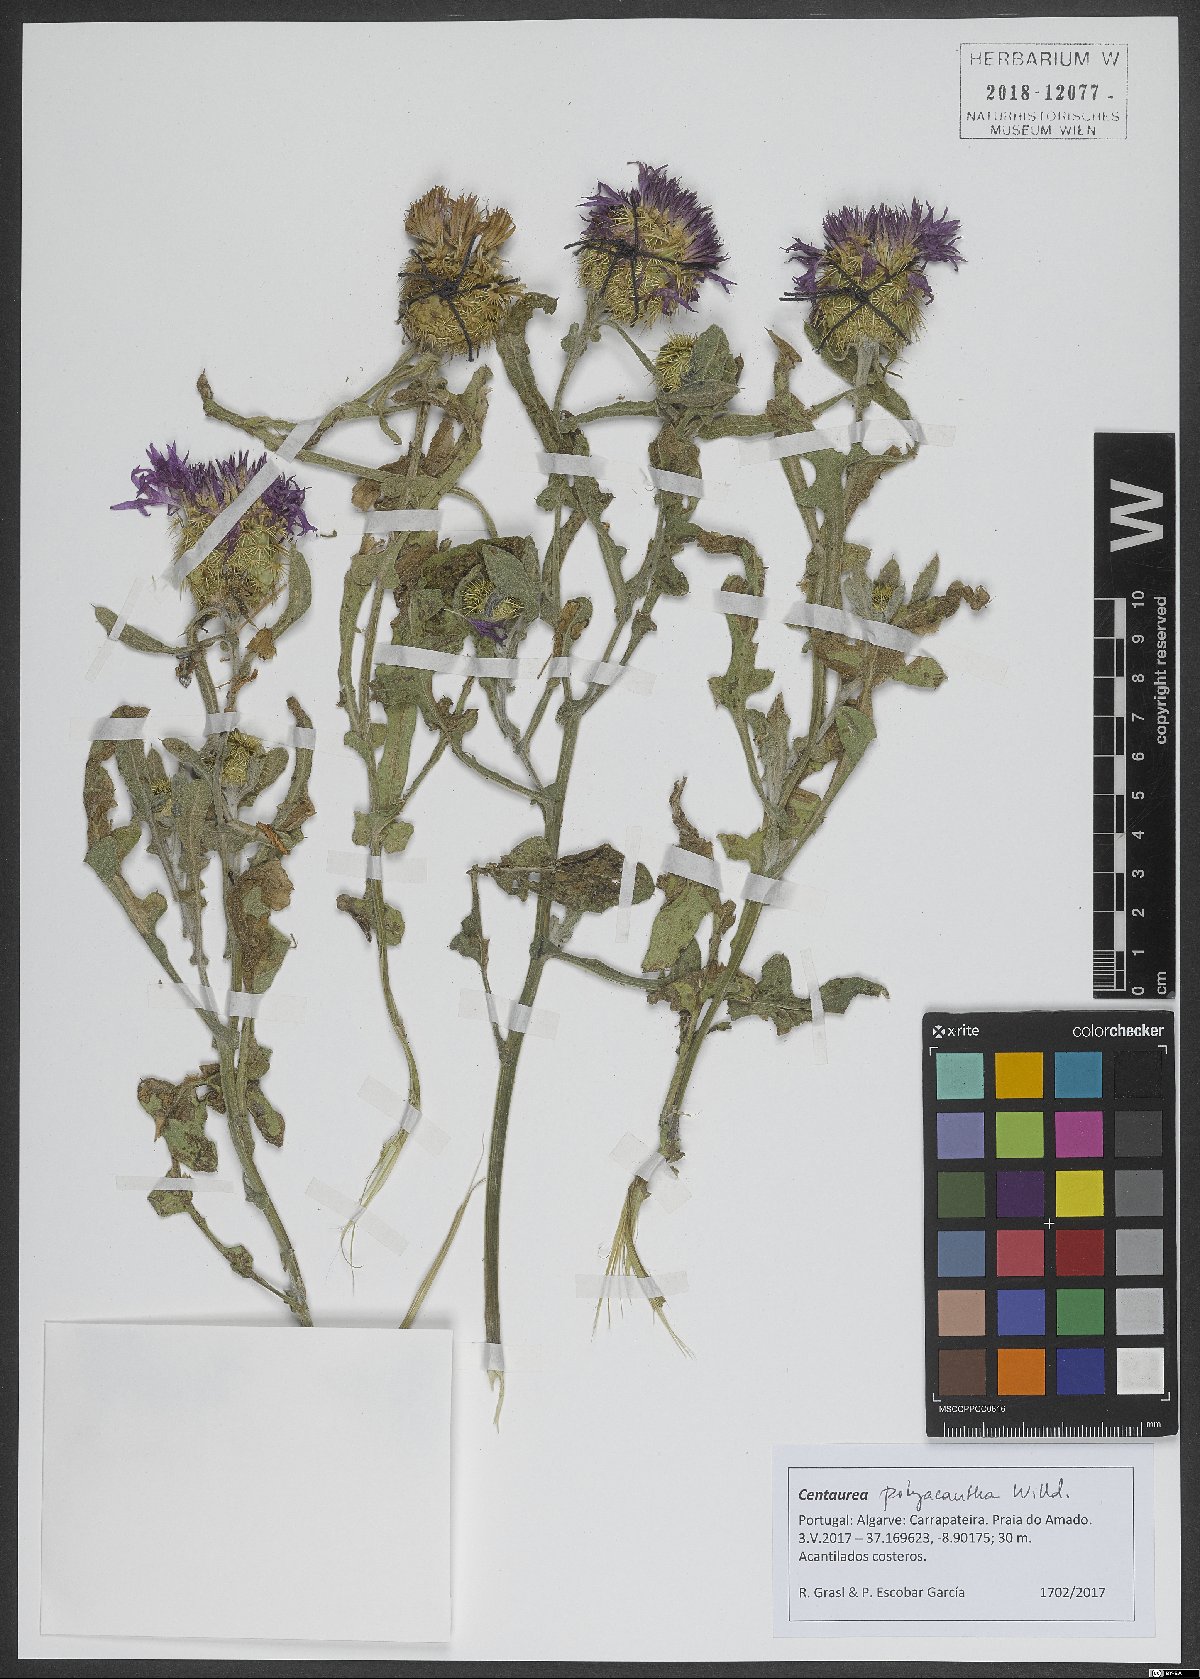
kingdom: Plantae
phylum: Tracheophyta
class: Magnoliopsida
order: Asterales
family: Asteraceae
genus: Centaurea
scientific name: Centaurea polyacantha
